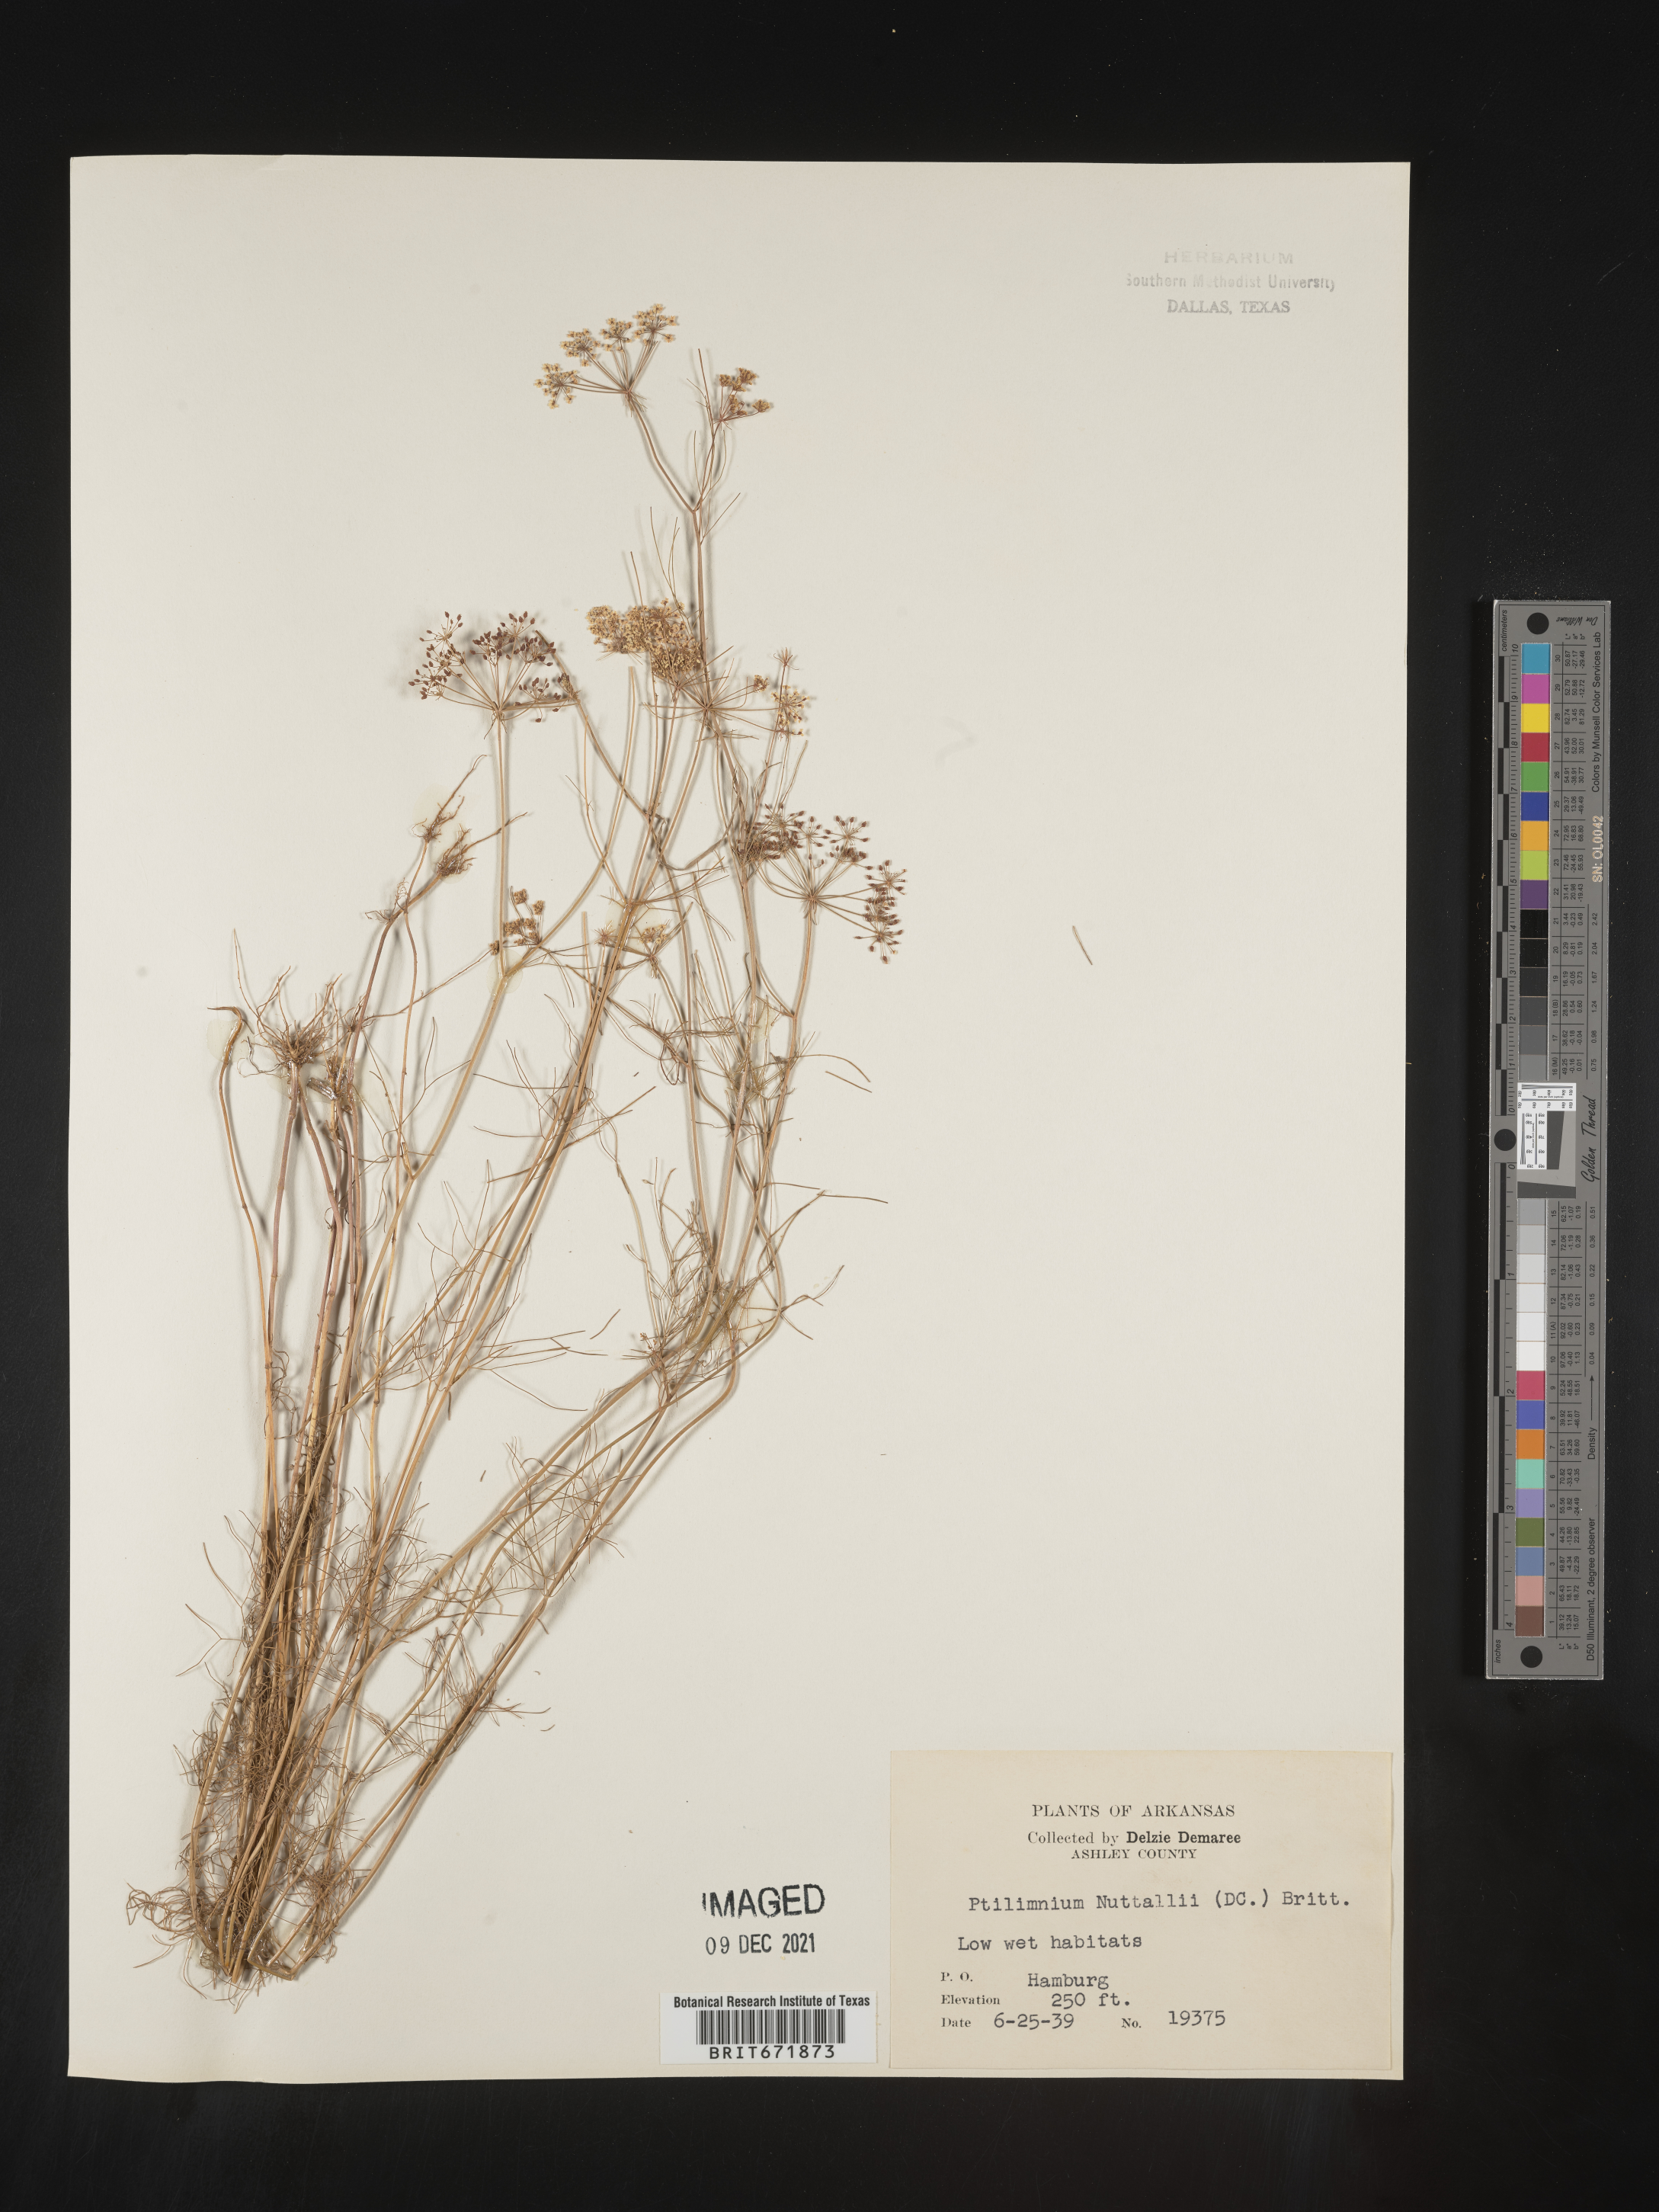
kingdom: Plantae
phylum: Tracheophyta
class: Magnoliopsida
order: Apiales
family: Apiaceae
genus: Ptilimnium
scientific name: Ptilimnium nuttallii
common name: Ozark bishop's-weed
